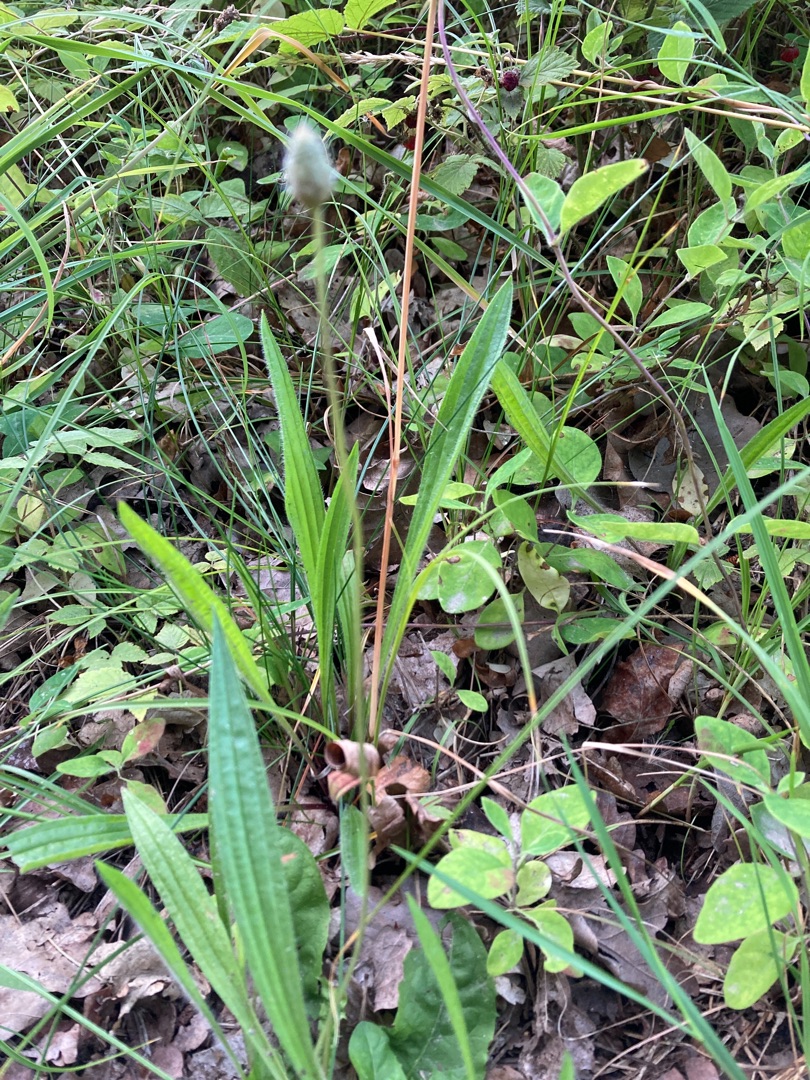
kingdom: Plantae
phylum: Tracheophyta
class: Magnoliopsida
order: Lamiales
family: Plantaginaceae
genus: Plantago
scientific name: Plantago lanceolata
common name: Lancet-vejbred
